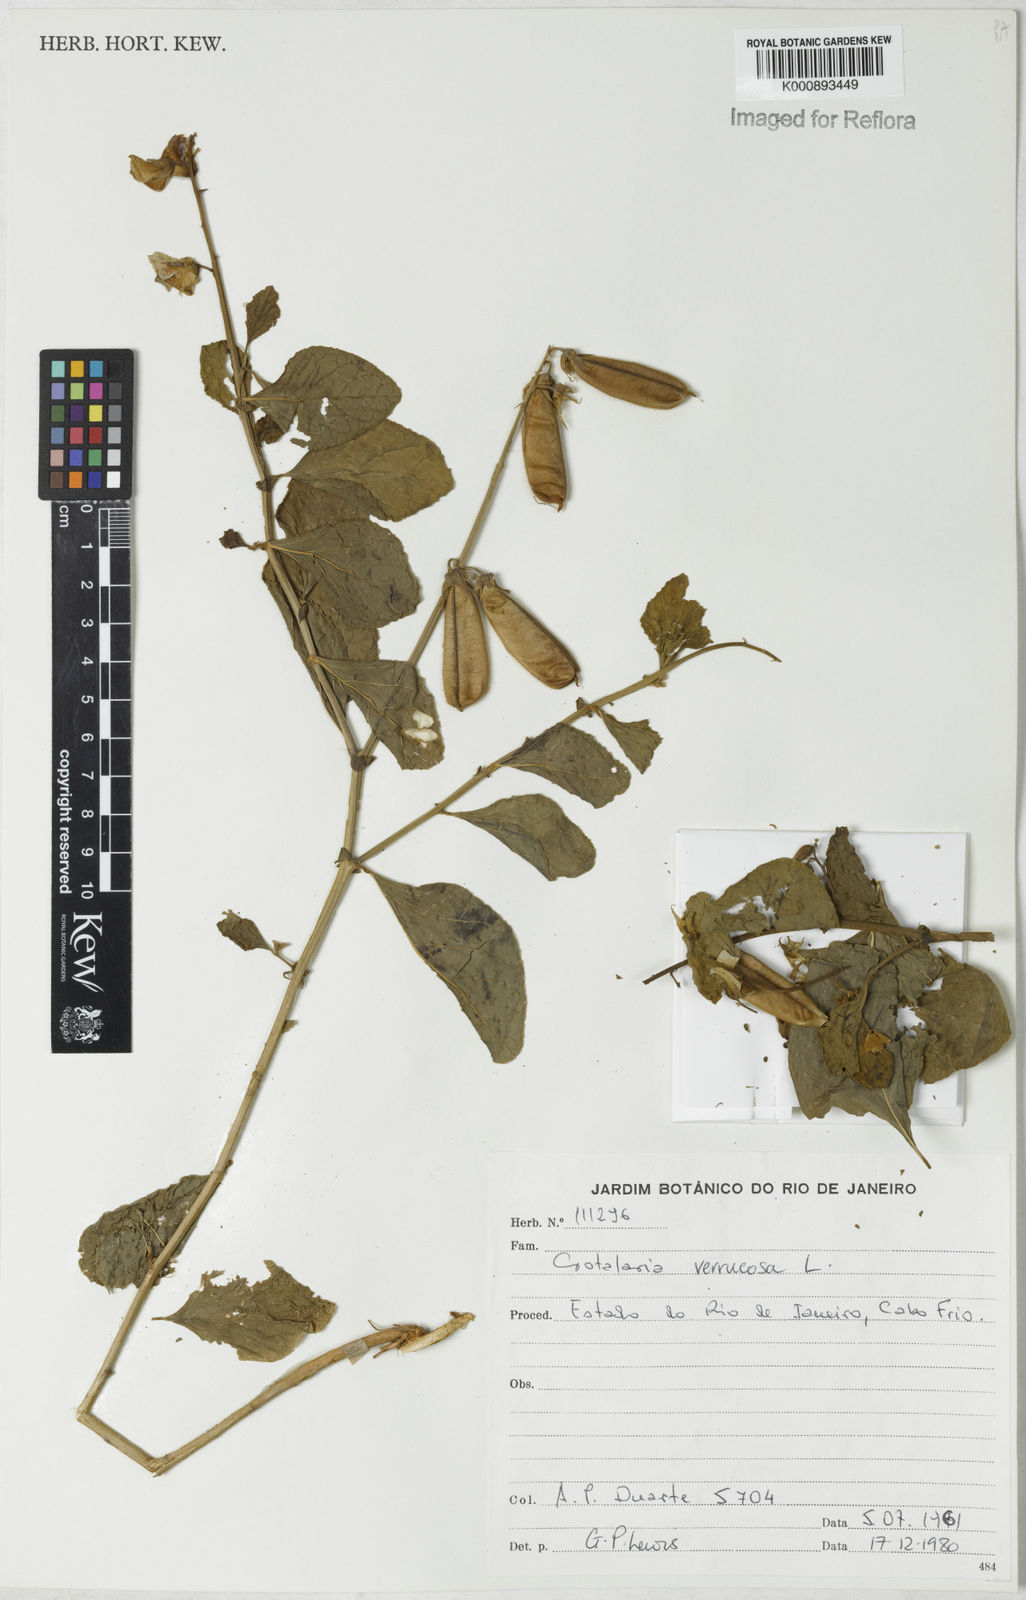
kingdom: Plantae
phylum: Tracheophyta
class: Magnoliopsida
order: Fabales
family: Fabaceae
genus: Crotalaria
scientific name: Crotalaria verrucosa
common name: Blue rattlesnake
